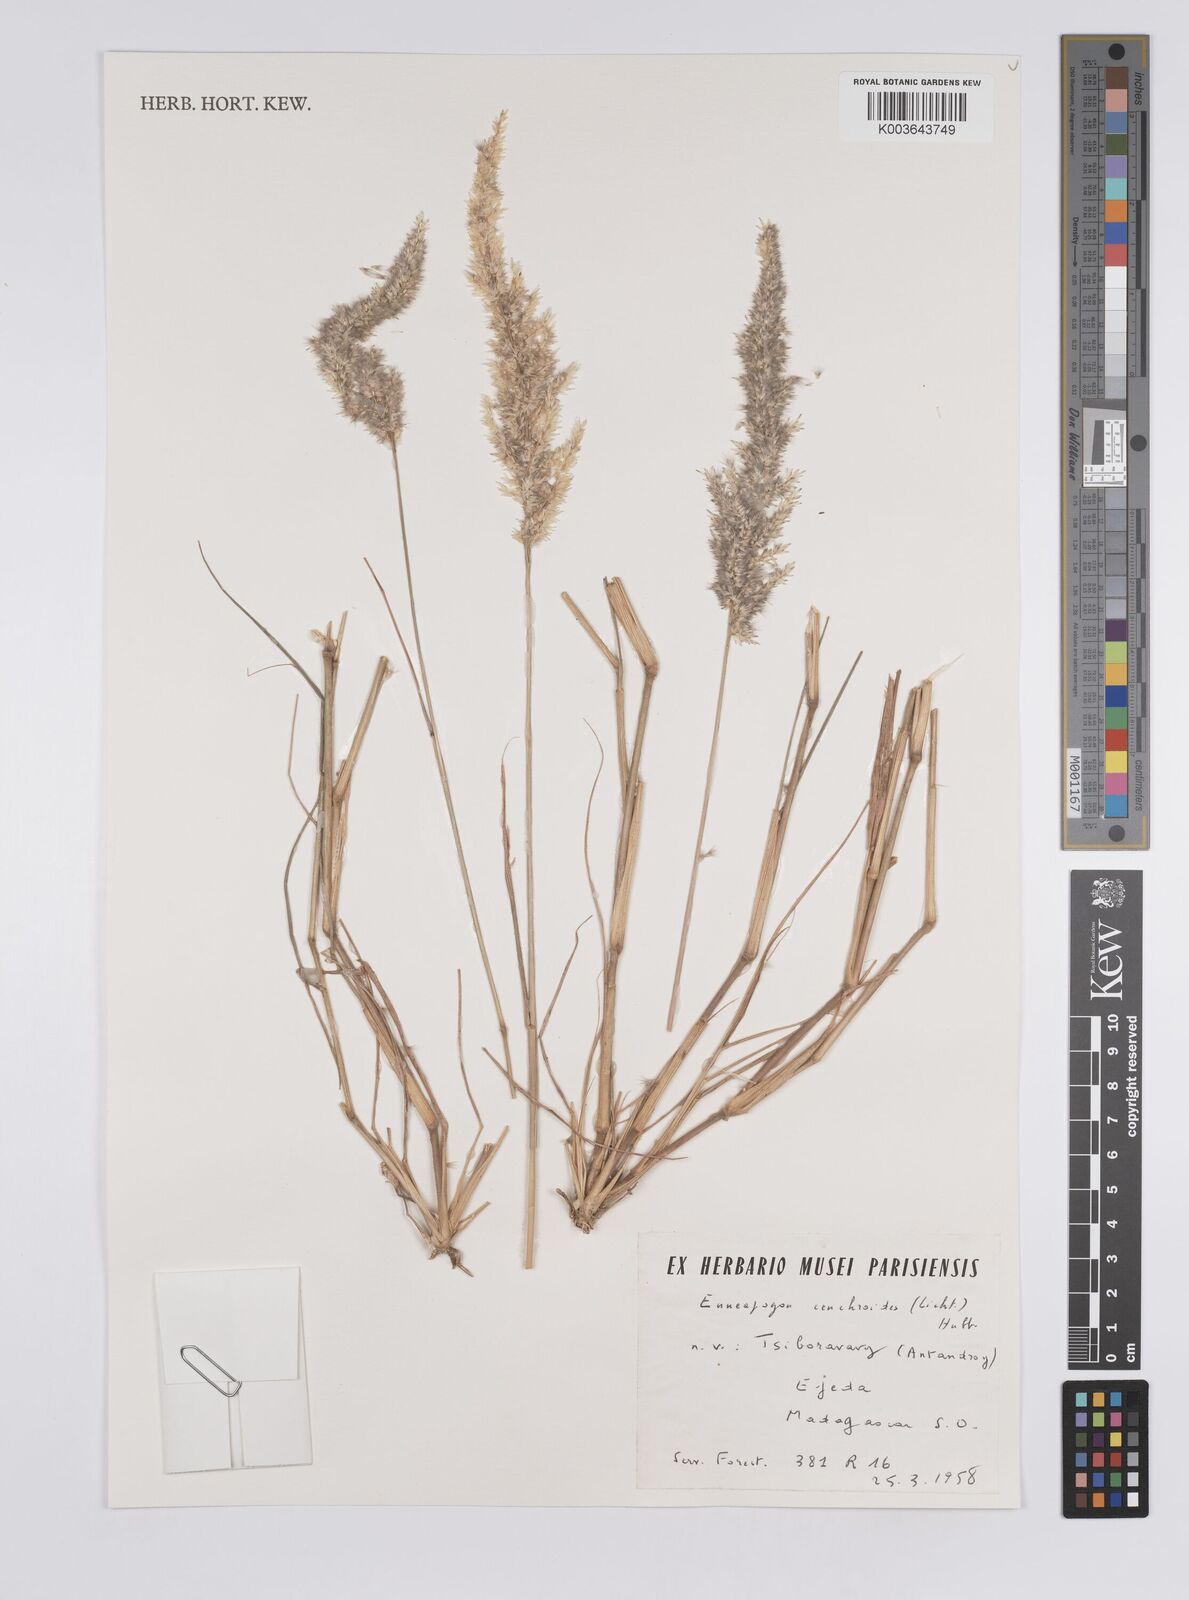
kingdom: Plantae
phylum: Tracheophyta
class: Liliopsida
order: Poales
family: Poaceae
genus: Enneapogon
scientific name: Enneapogon cenchroides
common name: Soft feather pappusgrass
